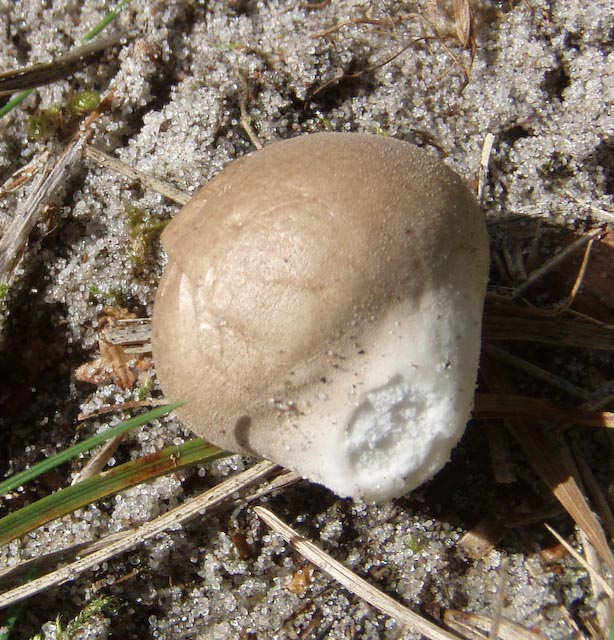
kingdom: Fungi
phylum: Basidiomycota
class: Agaricomycetes
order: Agaricales
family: Lycoperdaceae
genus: Lycoperdon
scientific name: Lycoperdon lividum
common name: mark-støvbold
